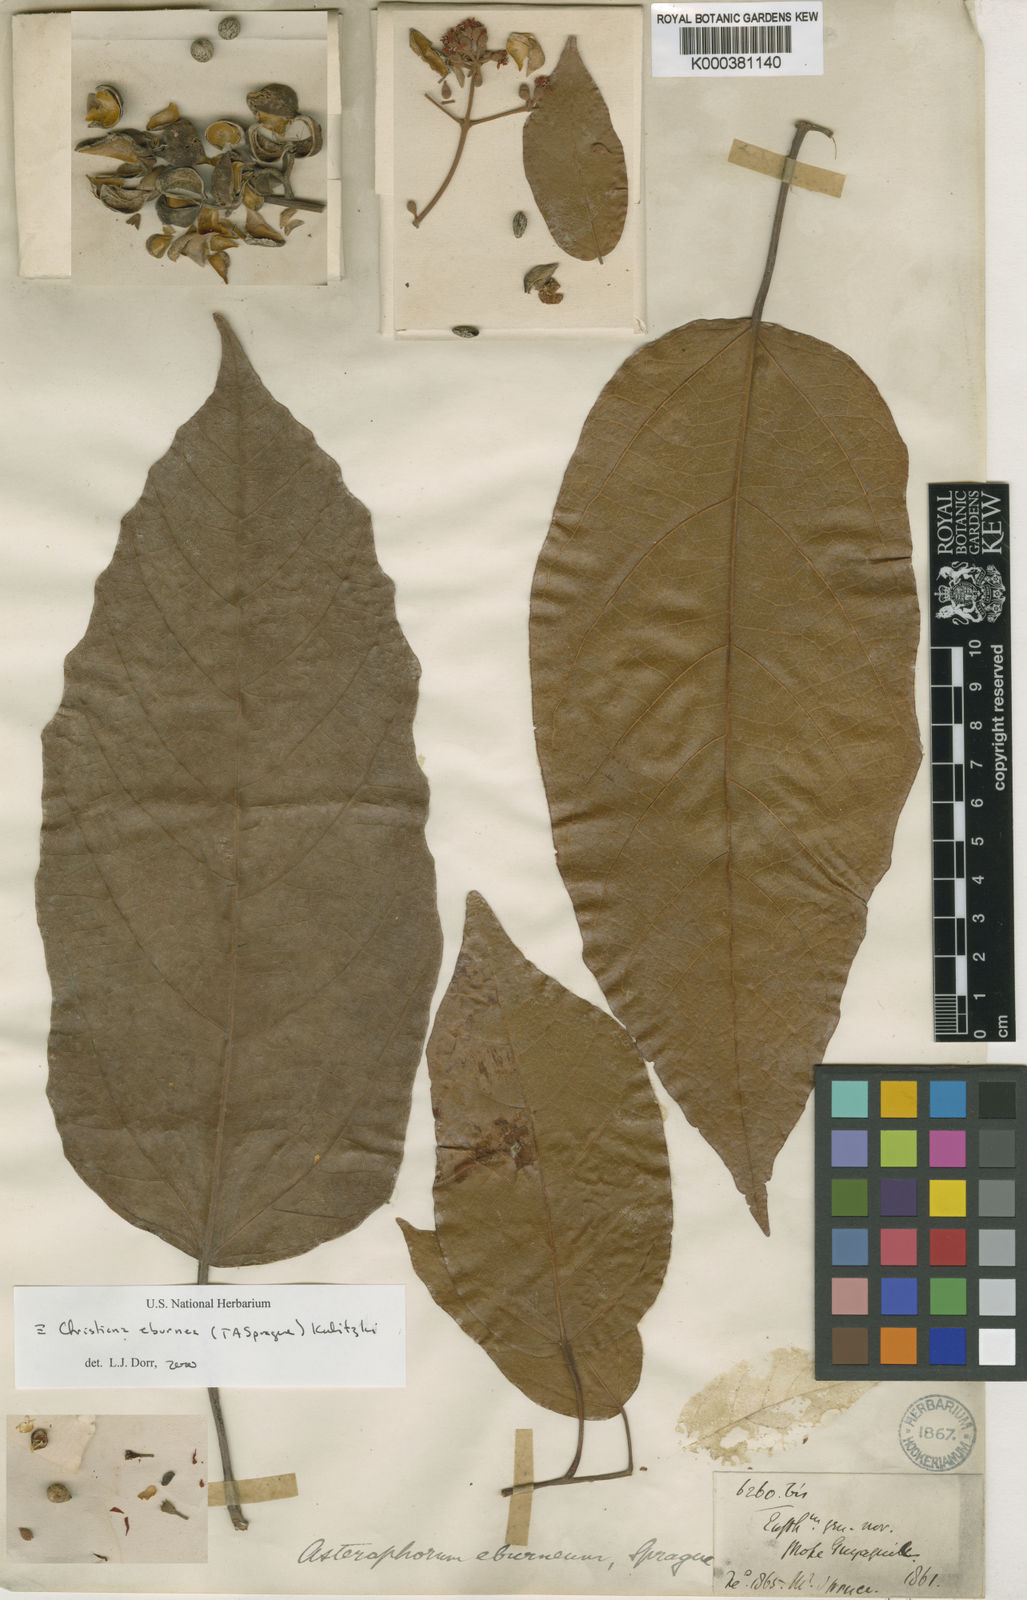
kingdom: Plantae
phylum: Tracheophyta
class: Magnoliopsida
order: Malvales
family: Malvaceae
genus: Christiana
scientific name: Christiana eburnea
